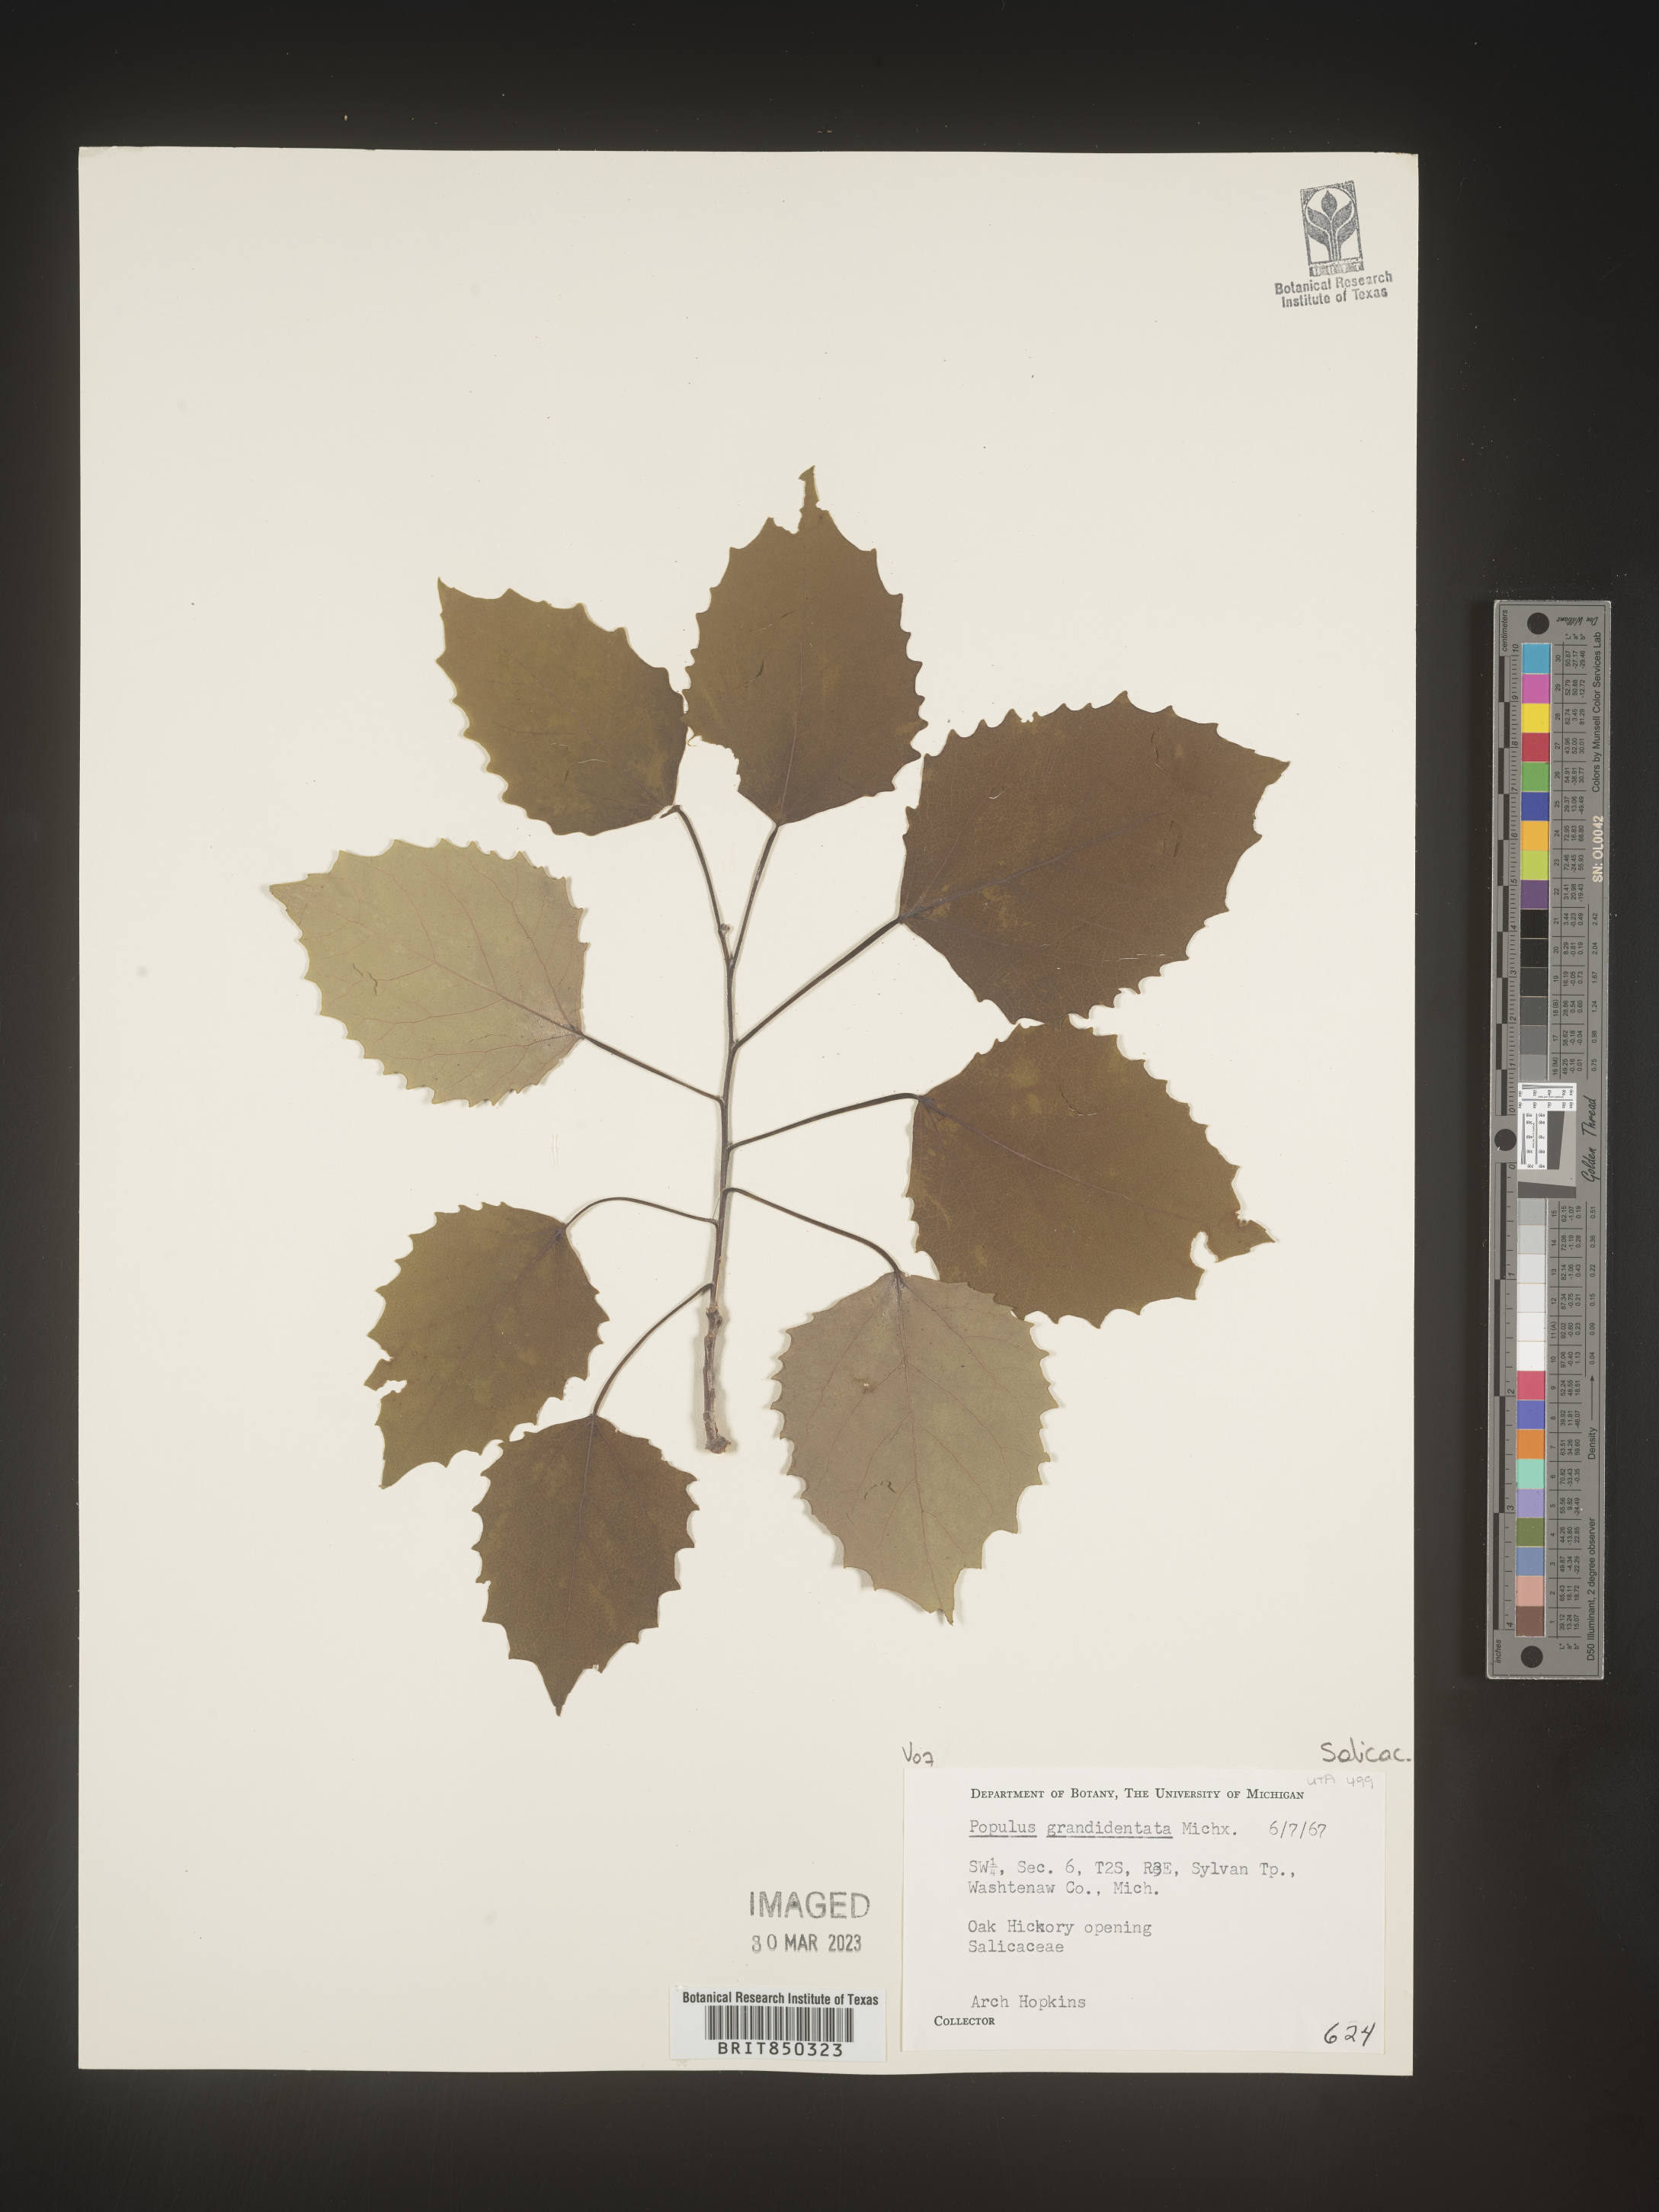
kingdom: Plantae
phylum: Tracheophyta
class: Magnoliopsida
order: Malpighiales
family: Salicaceae
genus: Populus
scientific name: Populus grandidentata
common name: Bigtooth aspen
